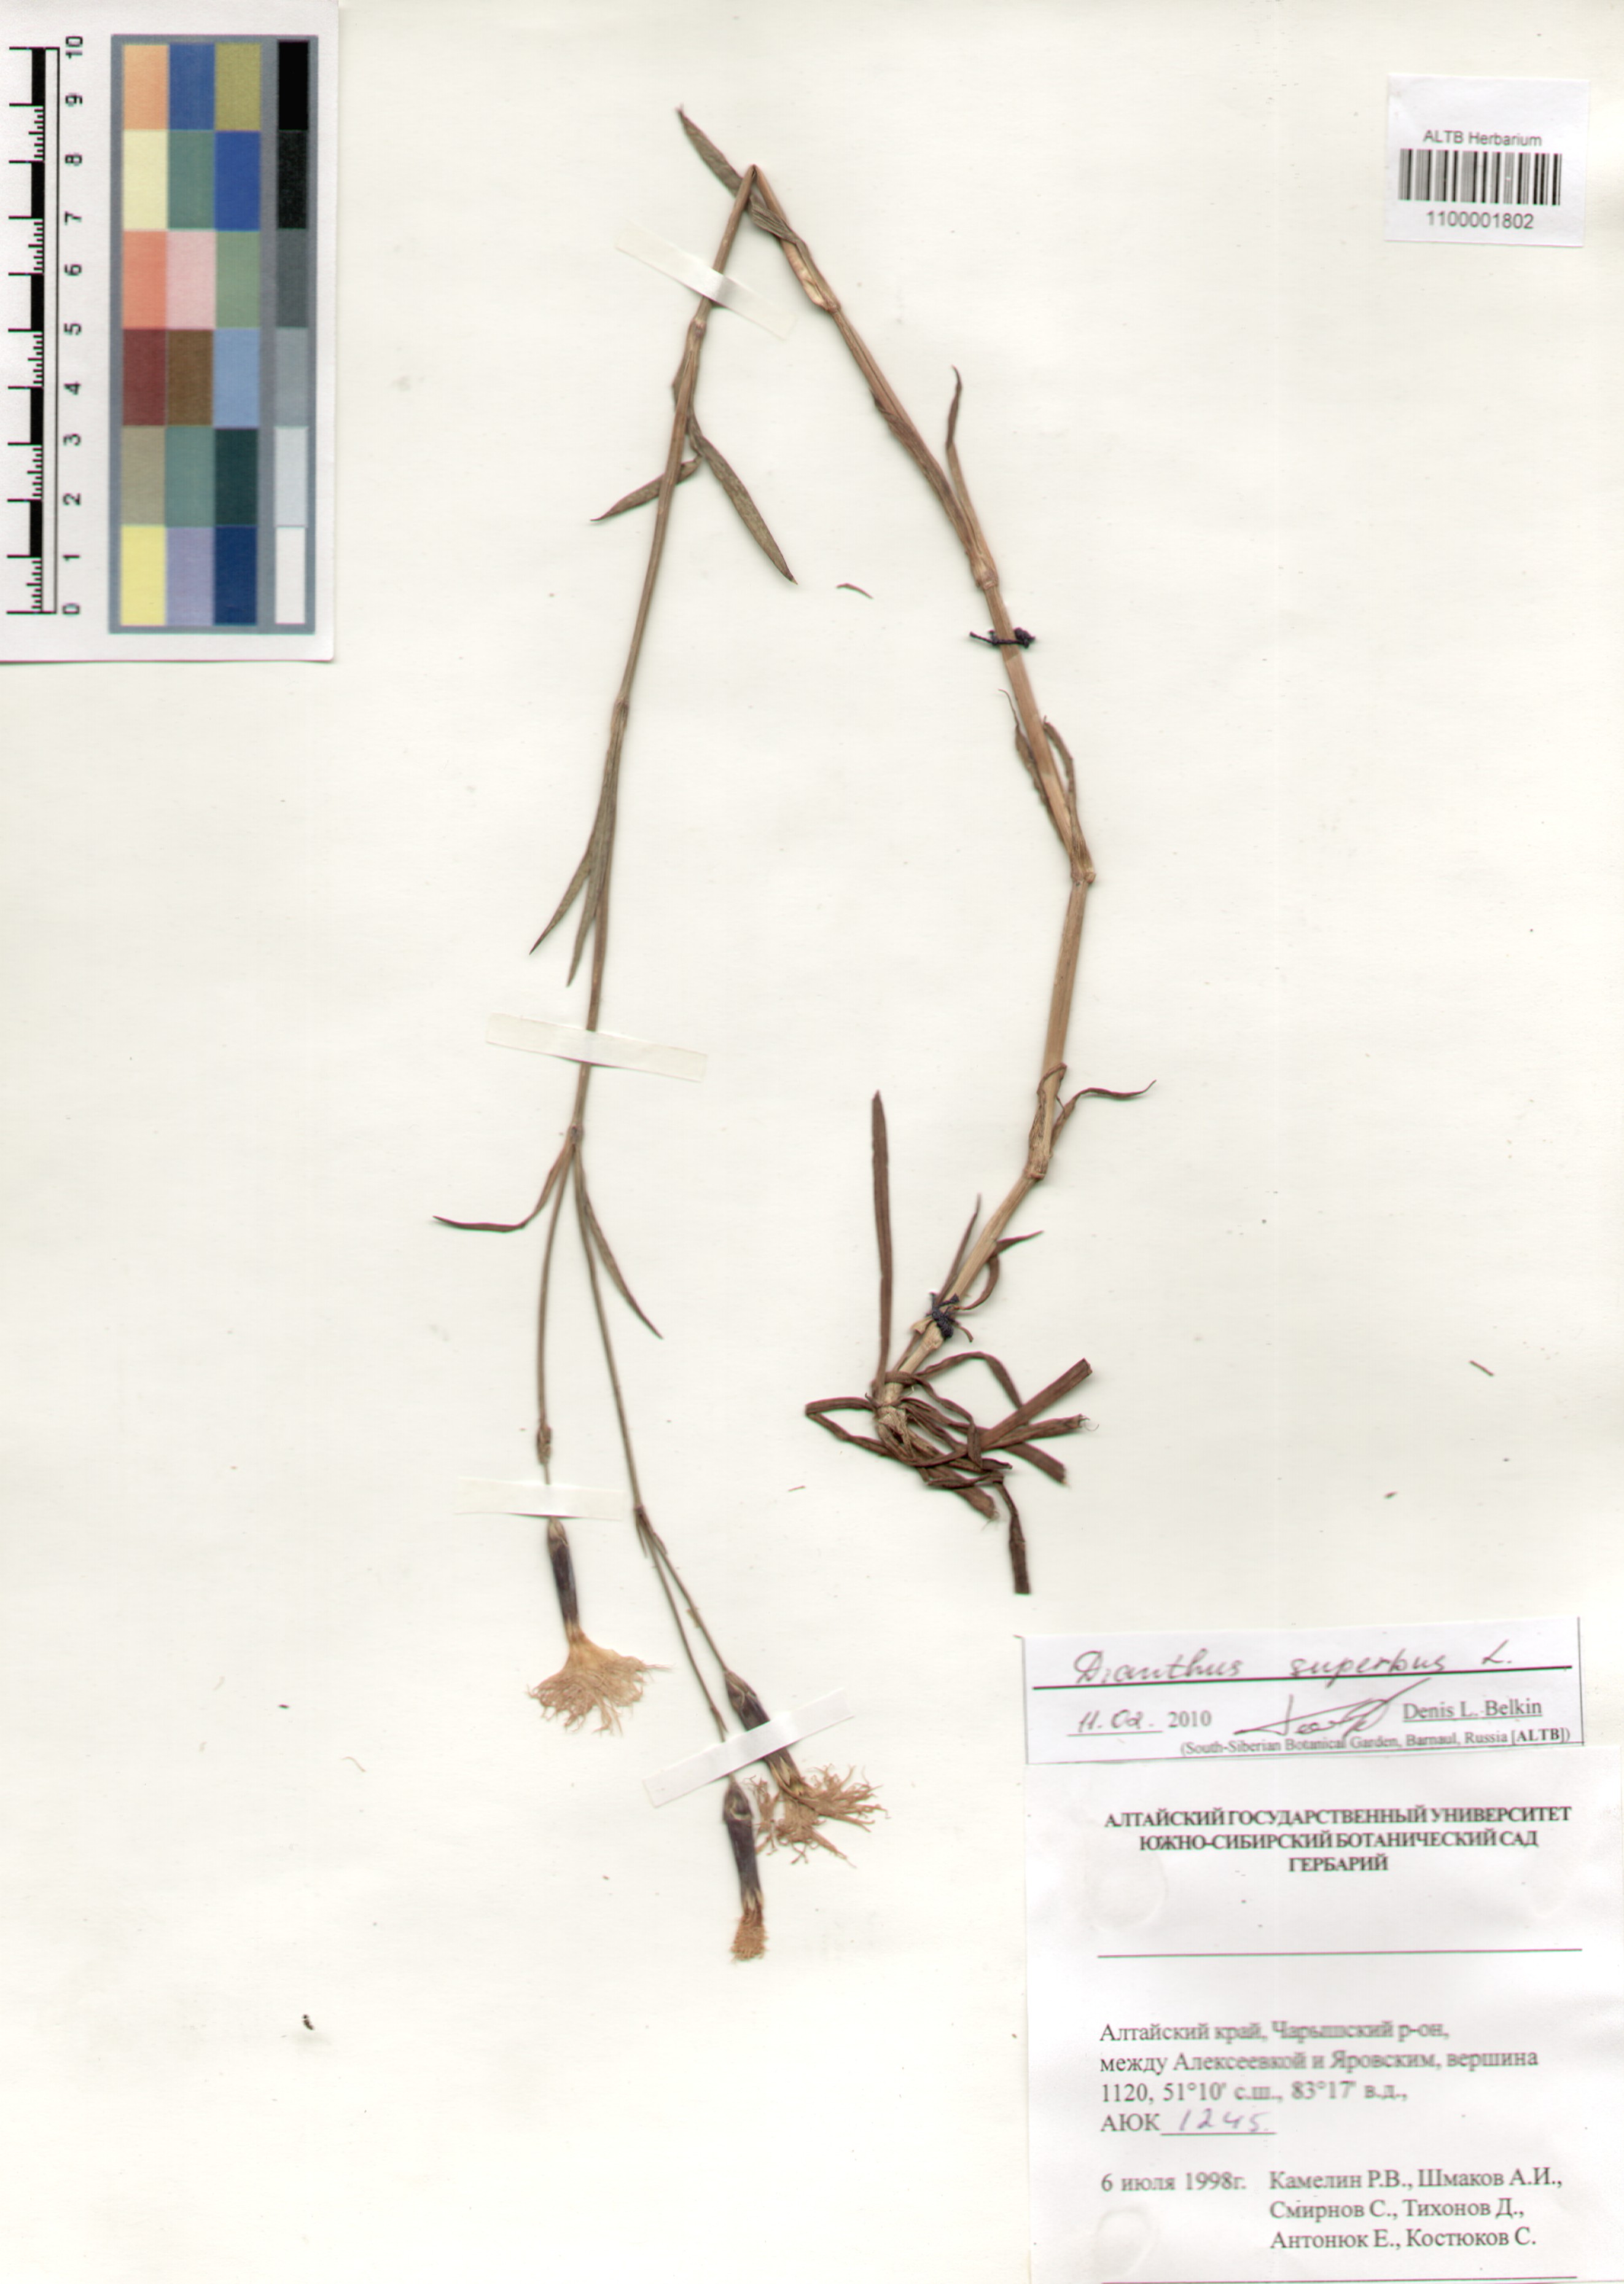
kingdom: Plantae
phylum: Tracheophyta
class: Magnoliopsida
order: Caryophyllales
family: Caryophyllaceae
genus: Dianthus
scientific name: Dianthus superbus
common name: Fringed pink
